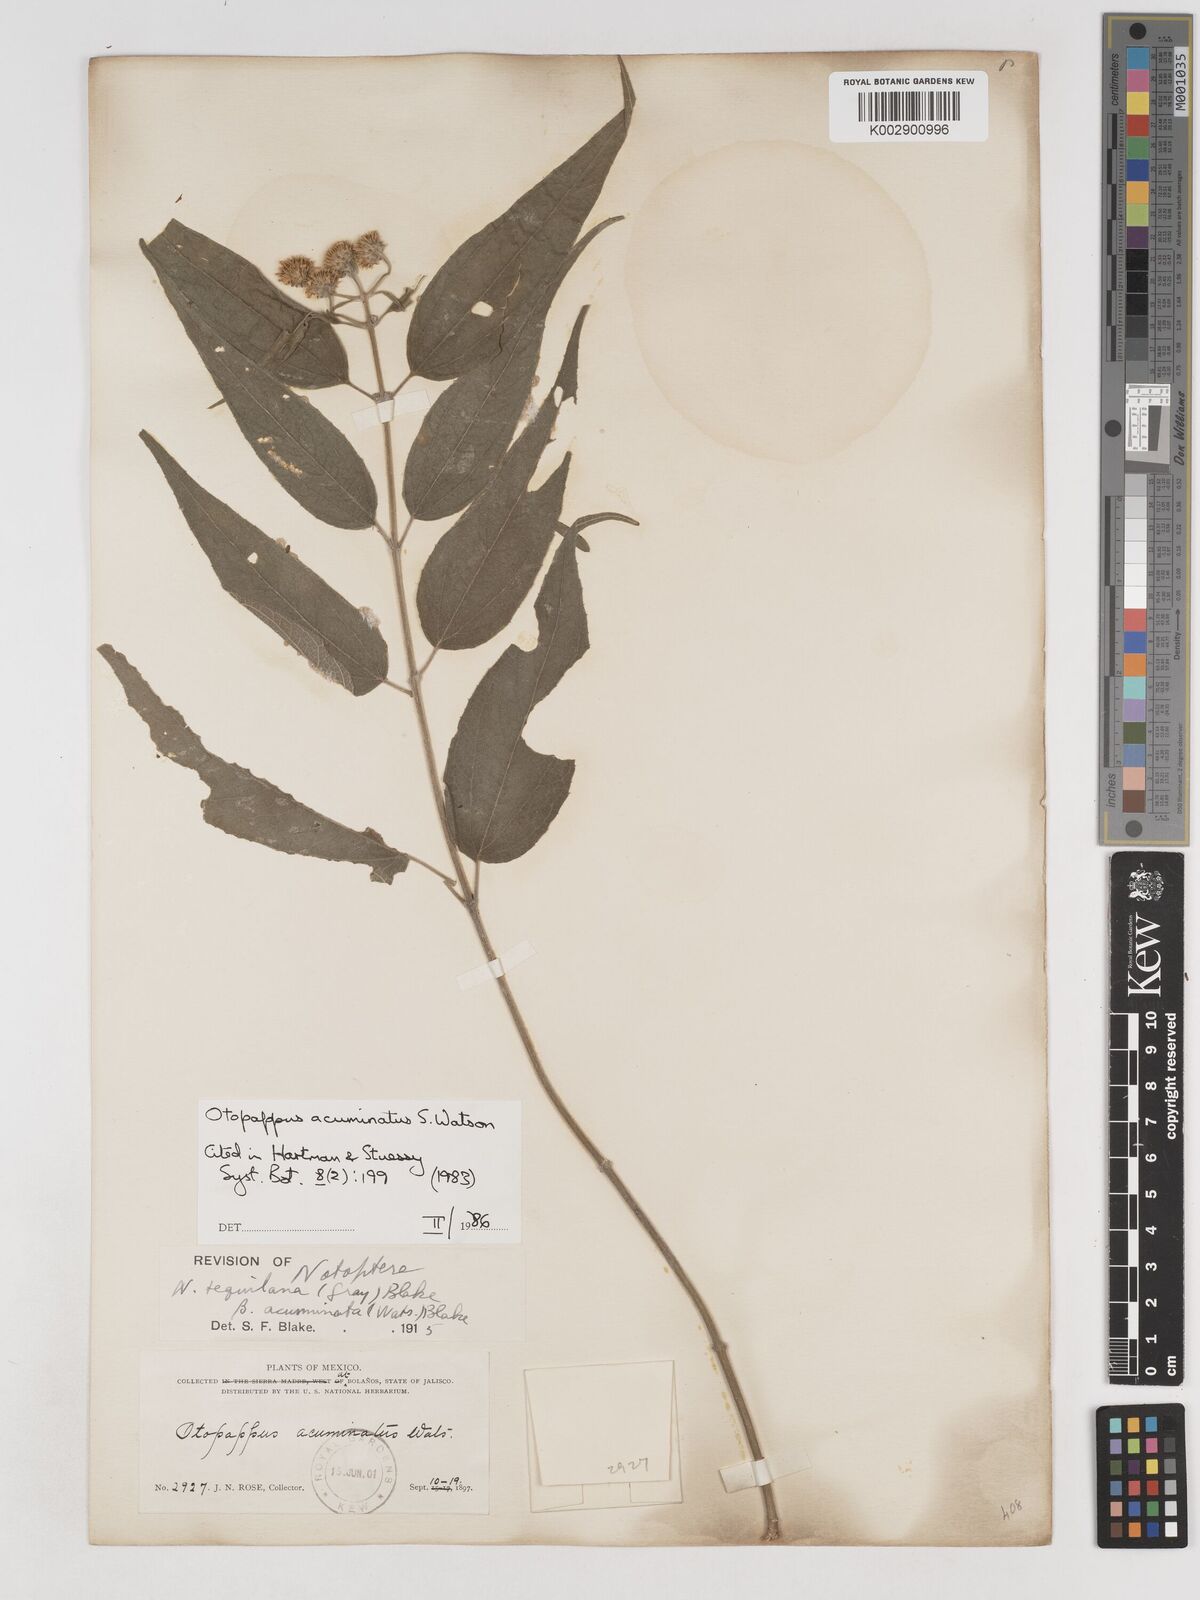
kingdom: Plantae
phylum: Tracheophyta
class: Magnoliopsida
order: Asterales
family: Asteraceae
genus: Otopappus
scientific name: Otopappus acuminatus
